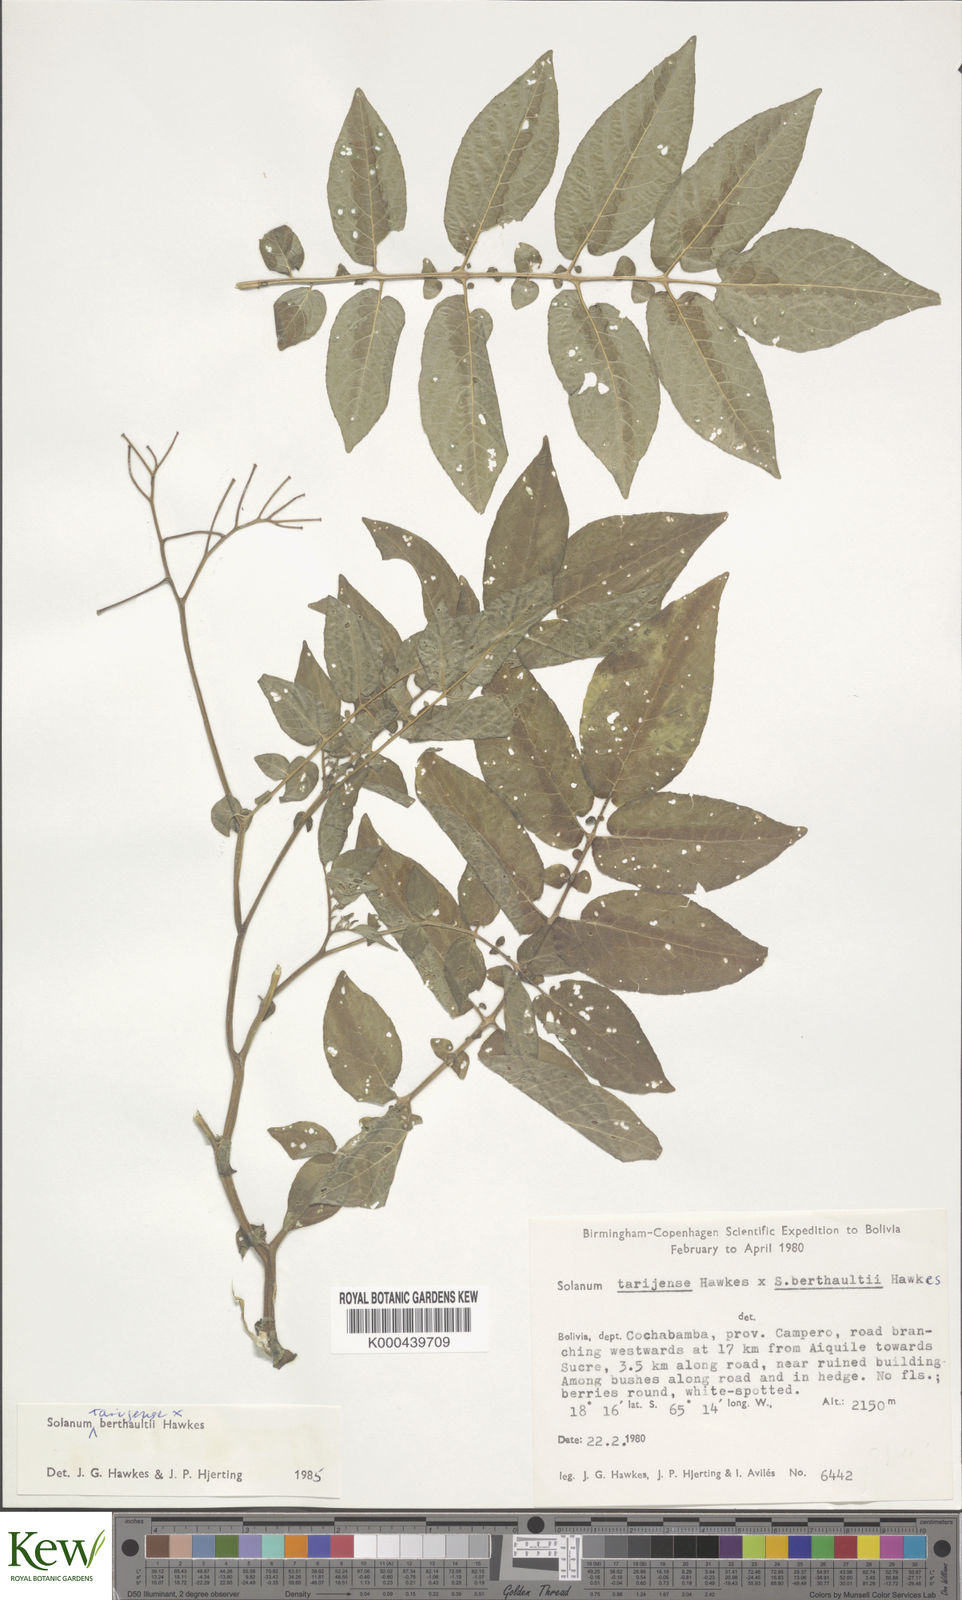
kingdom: Plantae
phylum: Tracheophyta
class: Magnoliopsida
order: Solanales
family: Solanaceae
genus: Solanum
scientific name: Solanum tarijense
